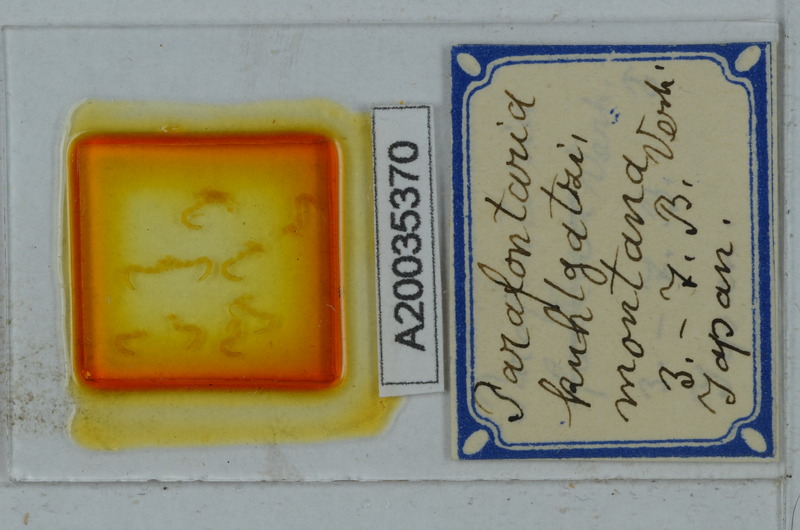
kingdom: Animalia
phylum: Arthropoda
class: Diplopoda
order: Polydesmida
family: Xystodesmidae
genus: Parafontaria
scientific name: Parafontaria
